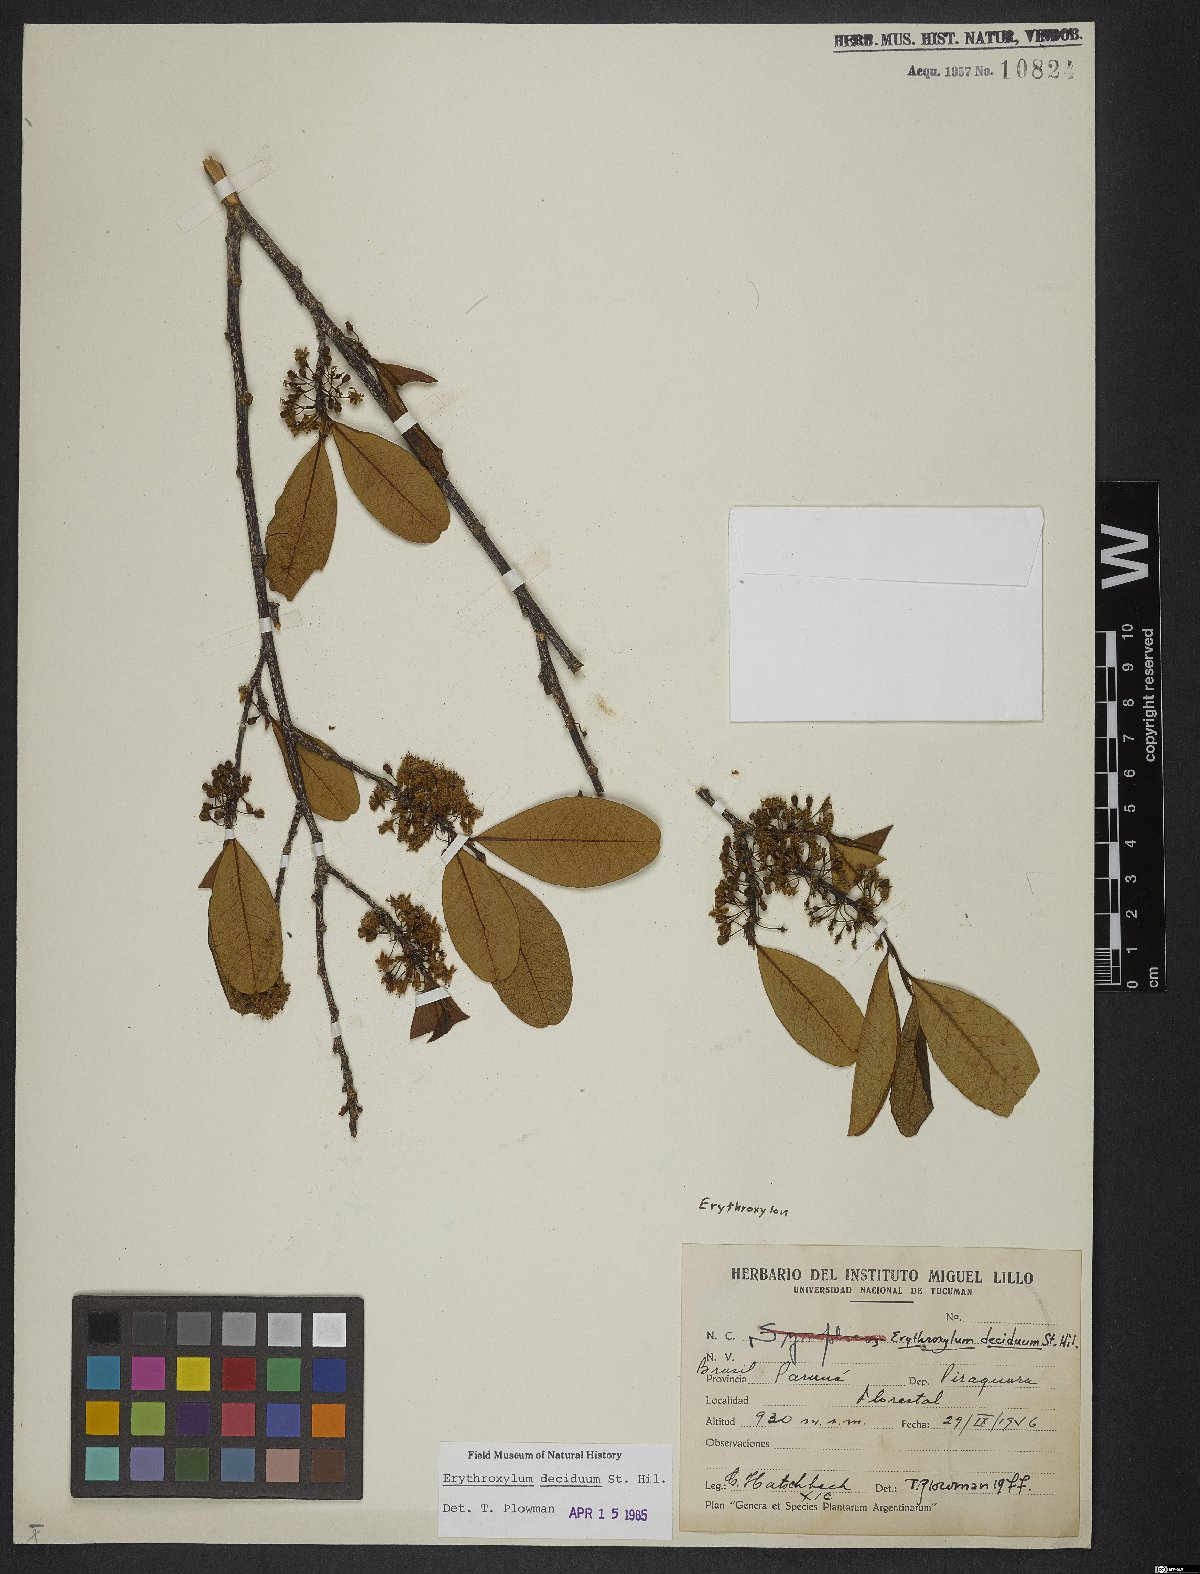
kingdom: Plantae
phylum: Tracheophyta
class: Magnoliopsida
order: Malpighiales
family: Erythroxylaceae
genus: Erythroxylum
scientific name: Erythroxylum deciduum
